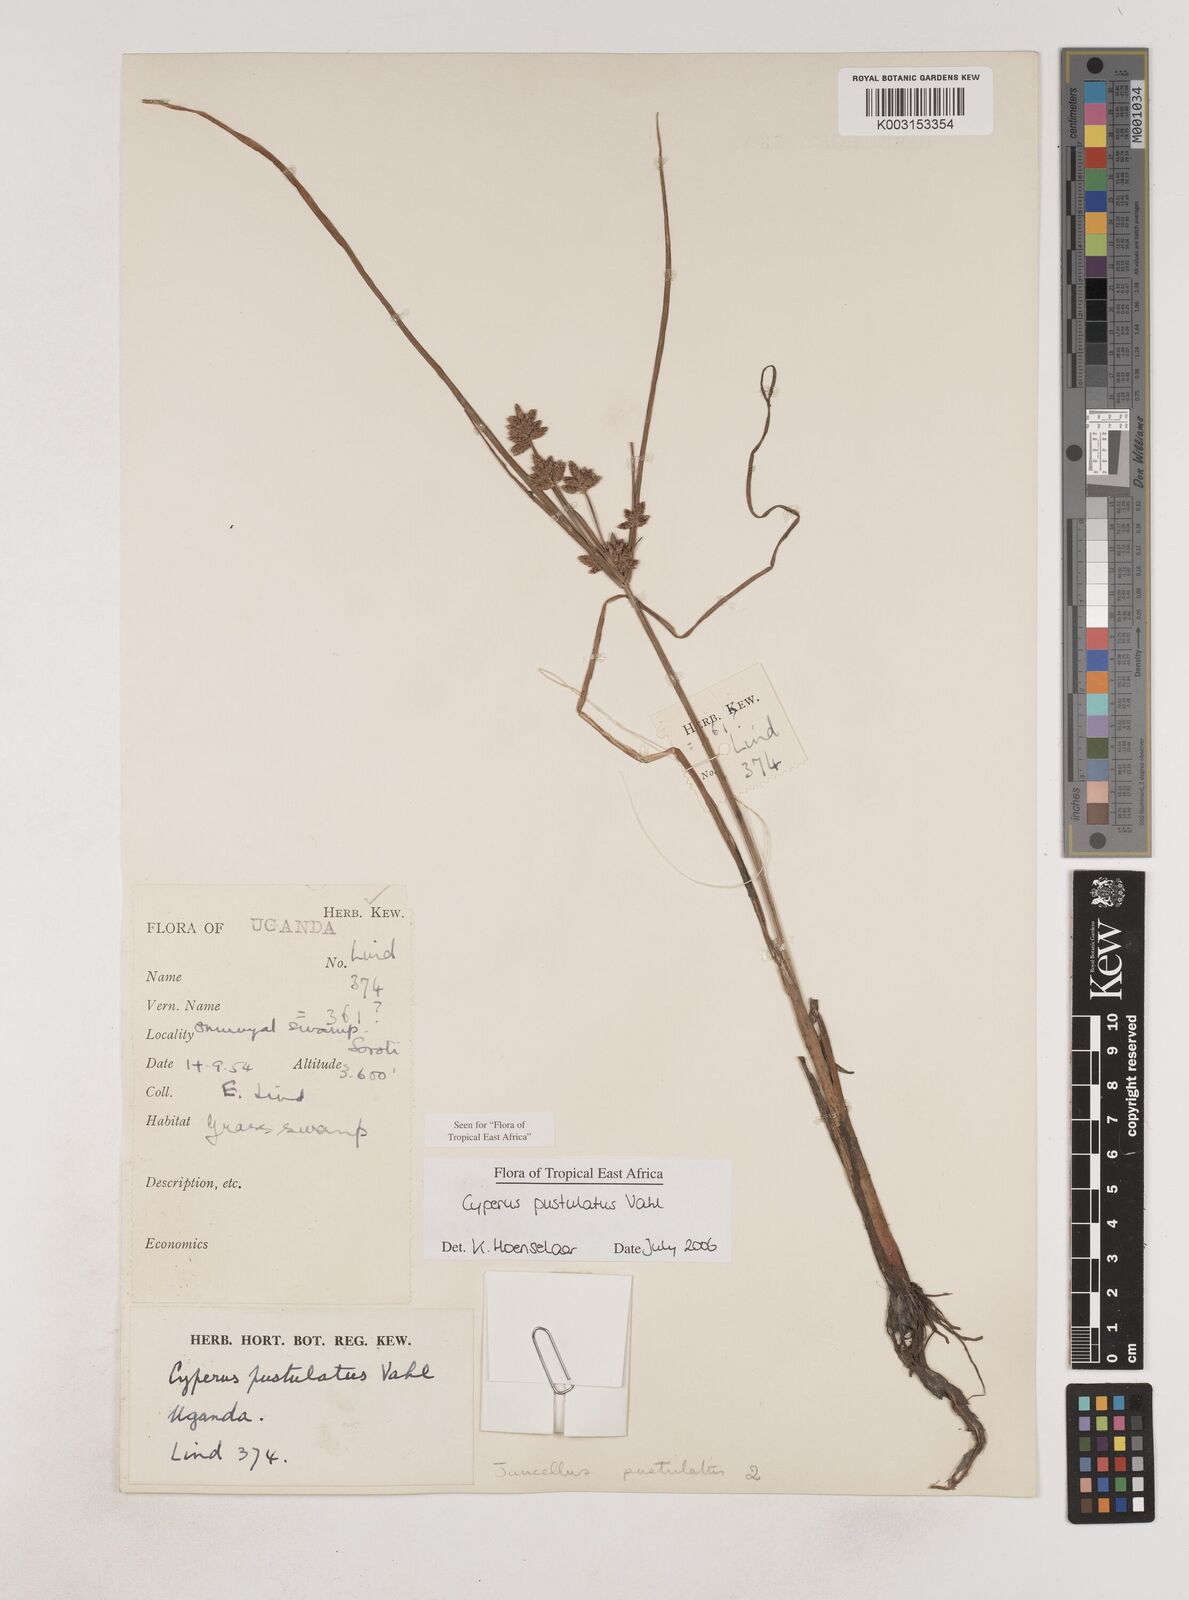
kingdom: Plantae
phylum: Tracheophyta
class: Liliopsida
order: Poales
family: Cyperaceae
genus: Cyperus
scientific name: Cyperus pustulatus
